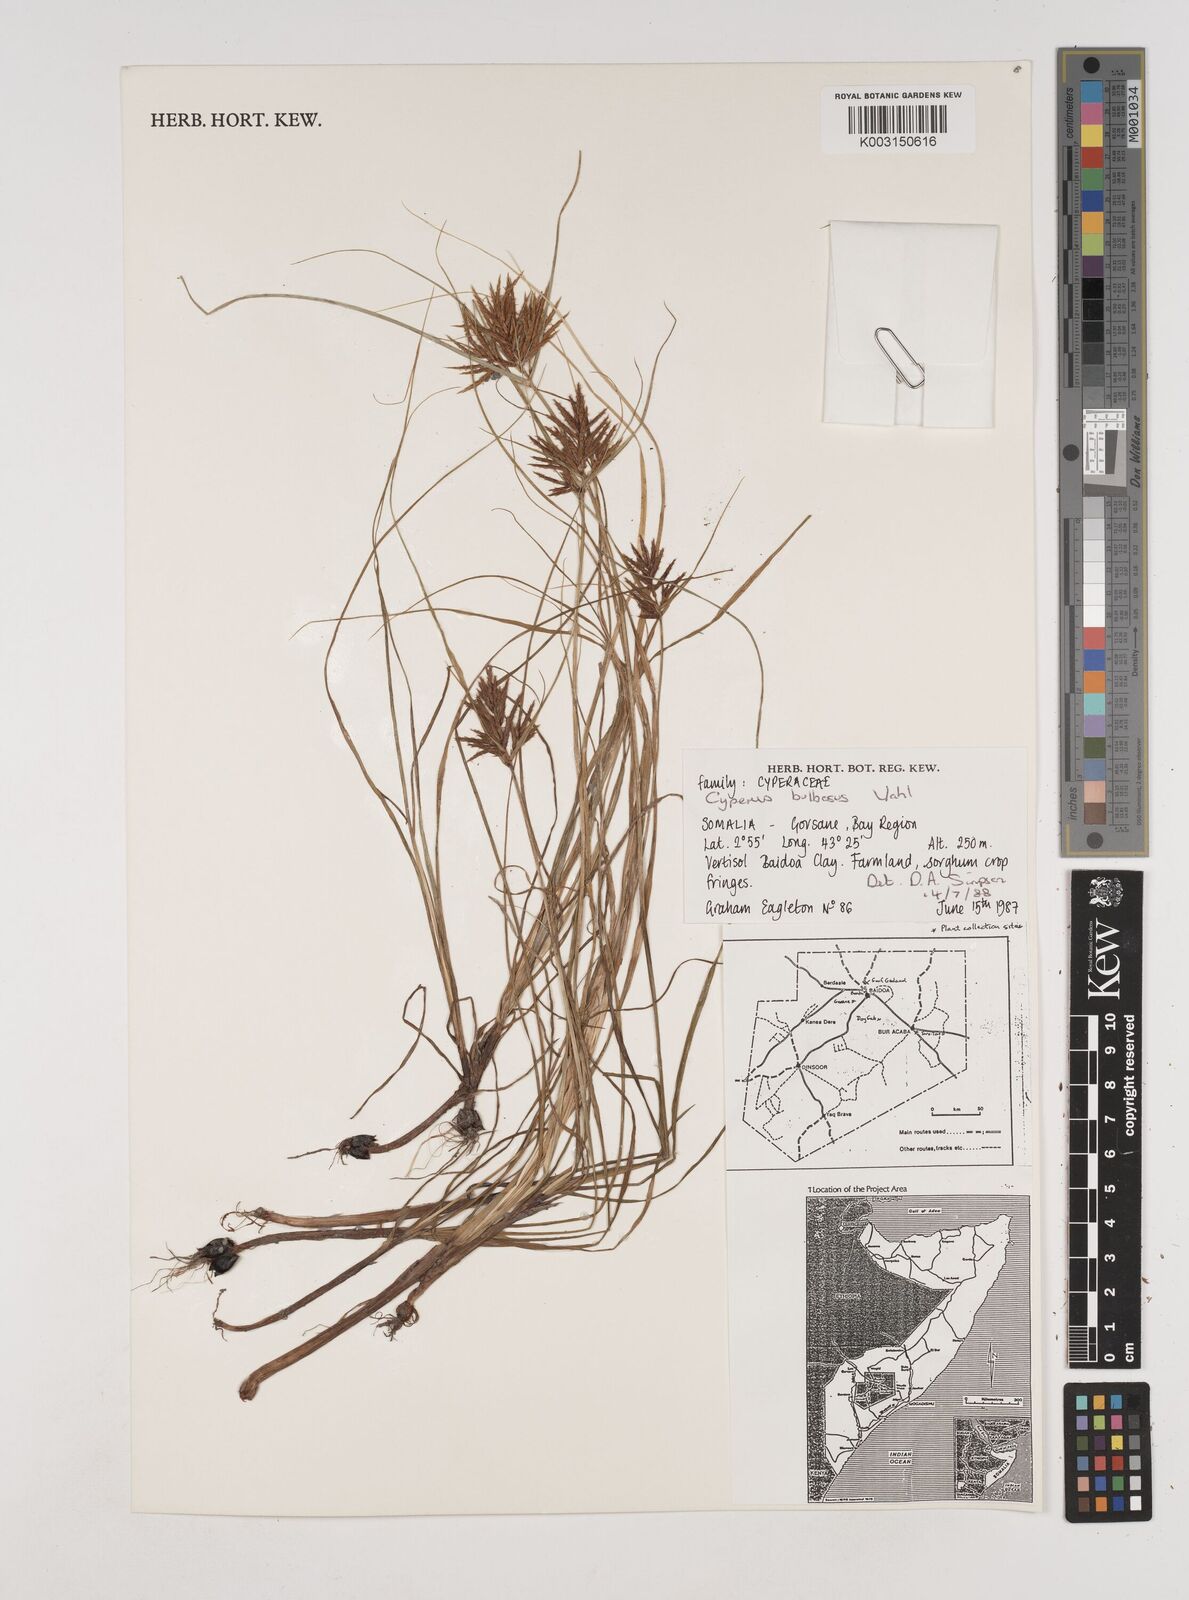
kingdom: Plantae
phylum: Tracheophyta
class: Liliopsida
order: Poales
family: Cyperaceae
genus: Cyperus
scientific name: Cyperus grandibulbosus
